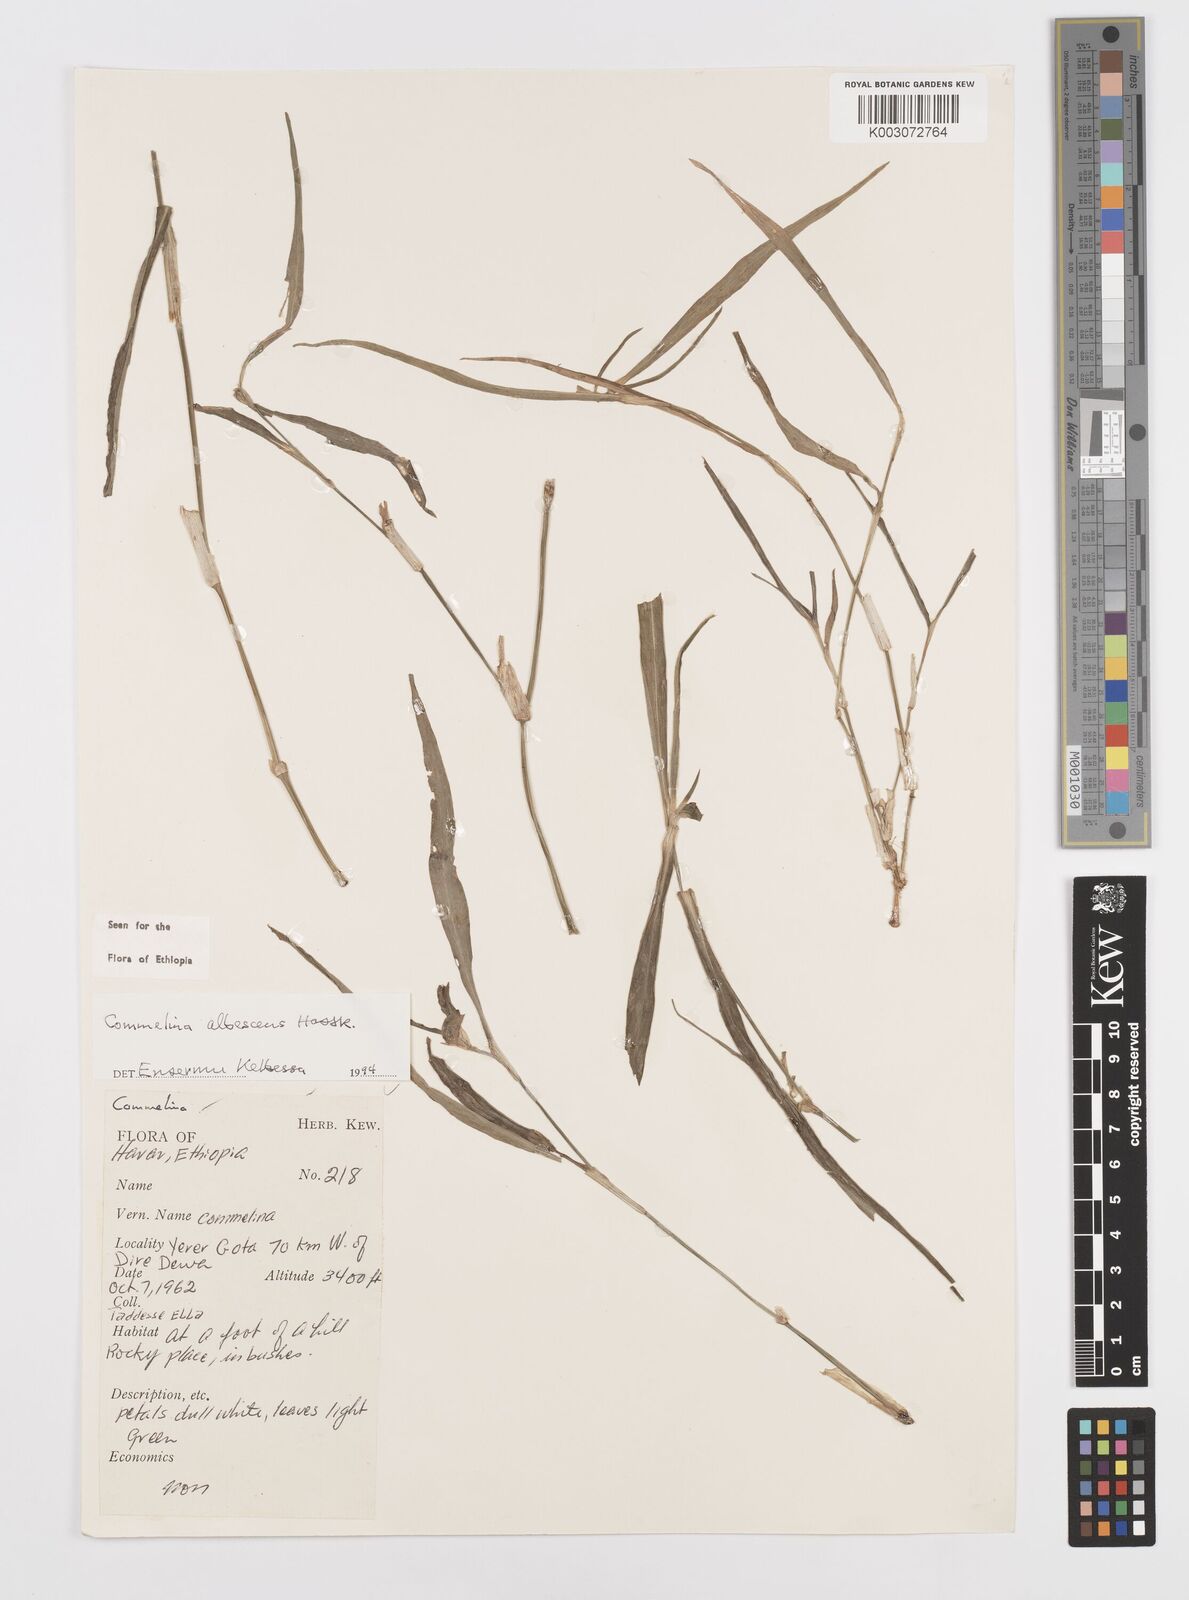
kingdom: Plantae
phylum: Tracheophyta
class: Liliopsida
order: Commelinales
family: Commelinaceae
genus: Commelina
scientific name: Commelina albescens
